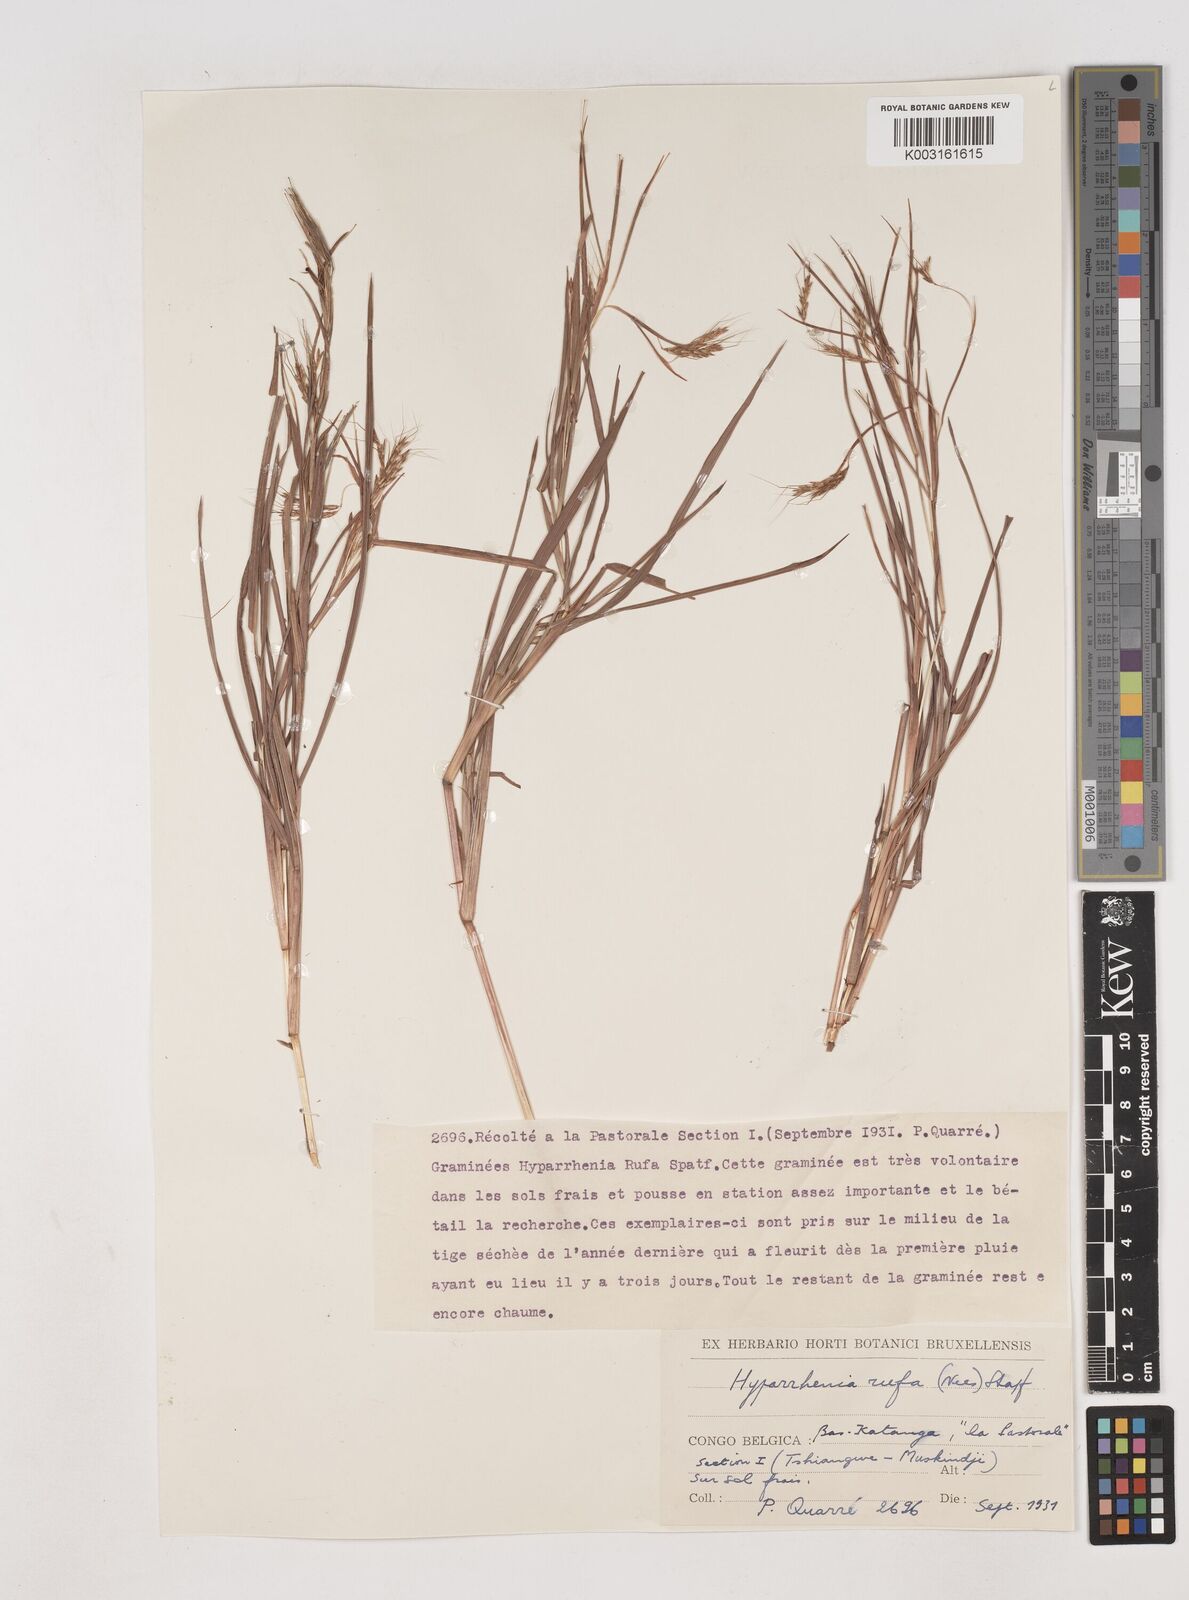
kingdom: Plantae
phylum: Tracheophyta
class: Liliopsida
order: Poales
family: Poaceae
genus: Hyparrhenia
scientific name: Hyparrhenia rufa
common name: Jaraguagrass
